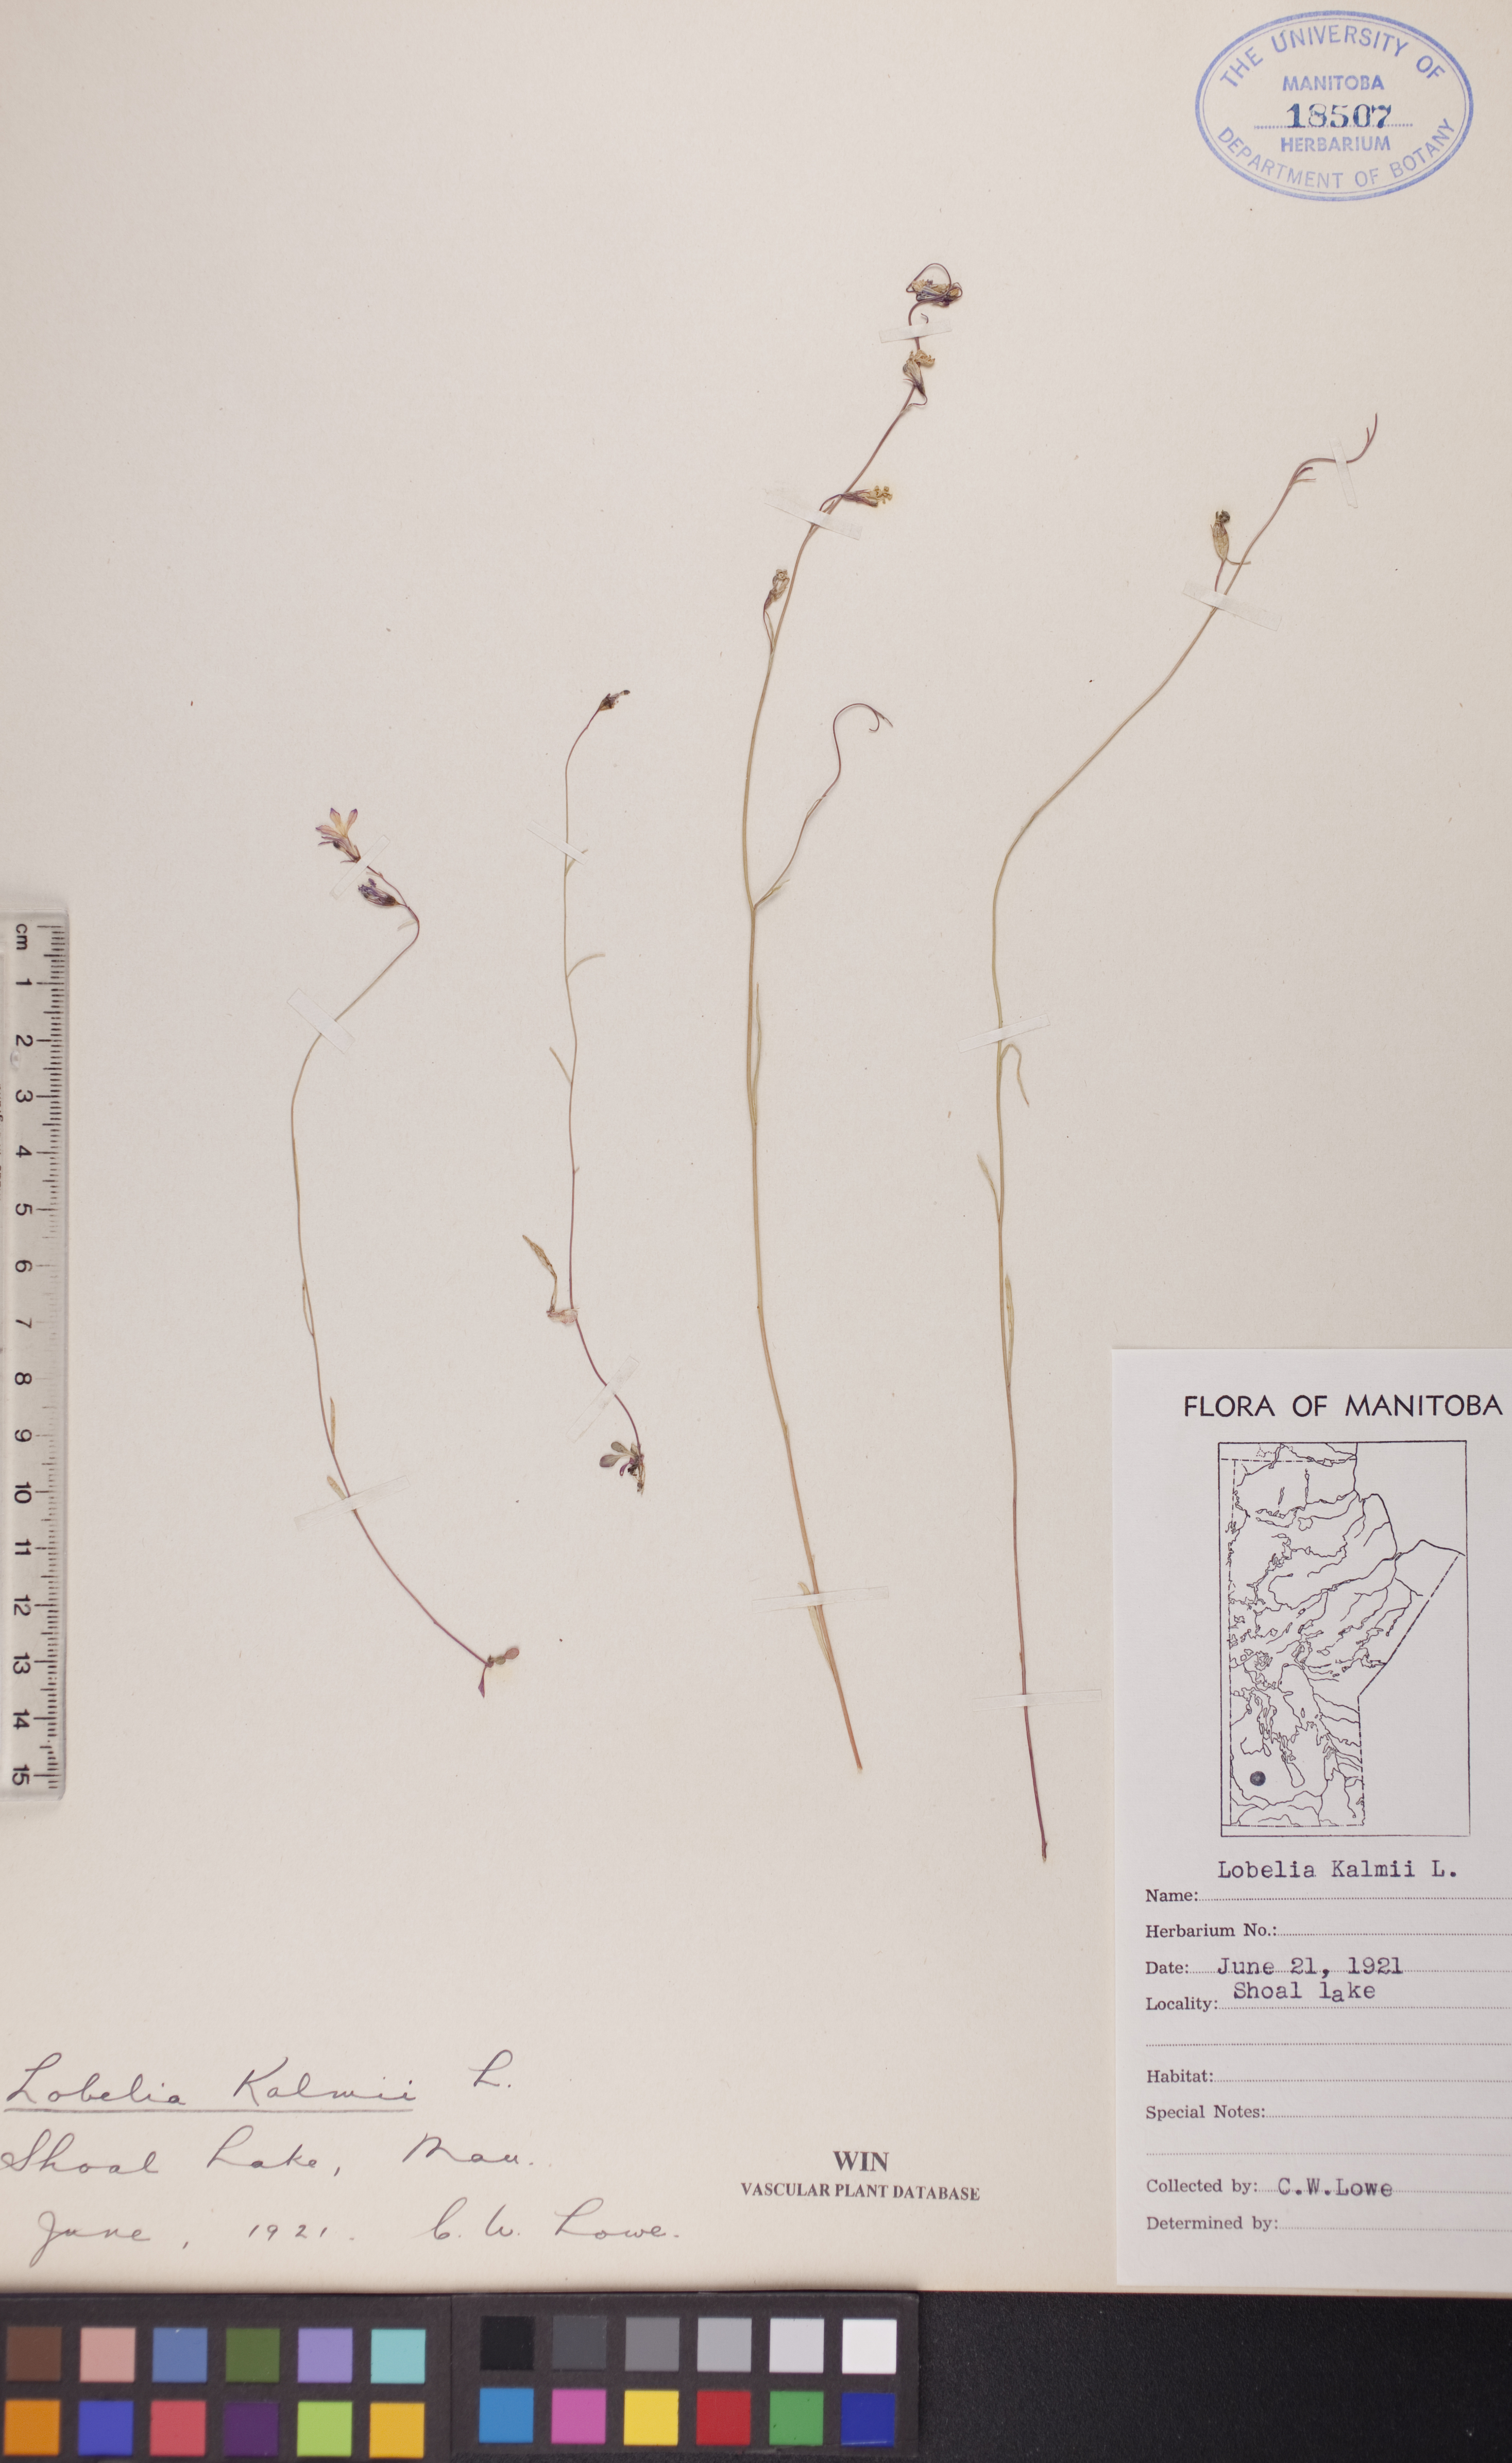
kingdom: Plantae
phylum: Tracheophyta
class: Magnoliopsida
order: Asterales
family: Campanulaceae
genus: Lobelia
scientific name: Lobelia kalmii
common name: Kalm's lobelia
